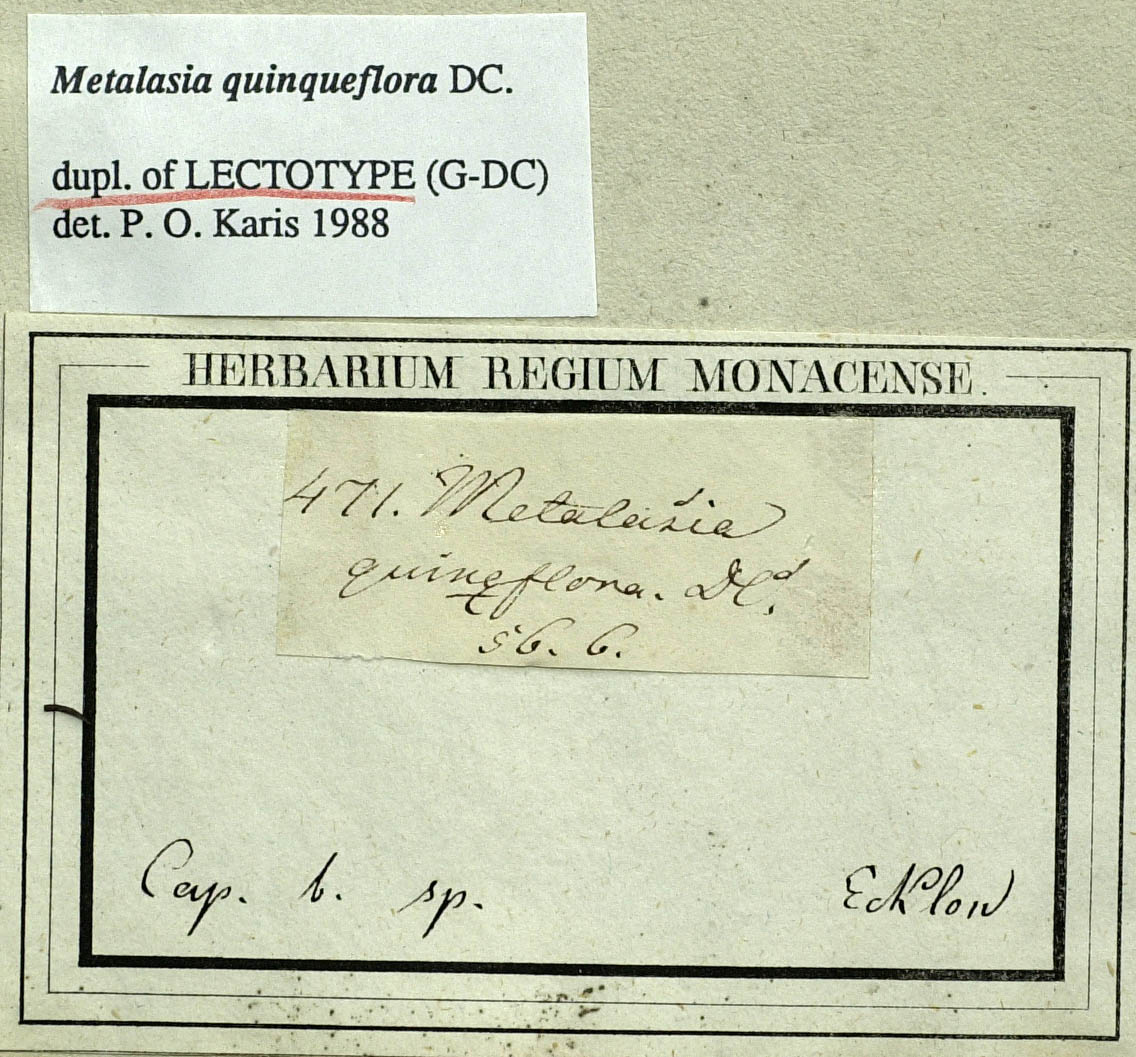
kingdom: Plantae
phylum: Tracheophyta
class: Magnoliopsida
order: Asterales
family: Asteraceae
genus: Metalasia
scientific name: Metalasia quinqueflora
